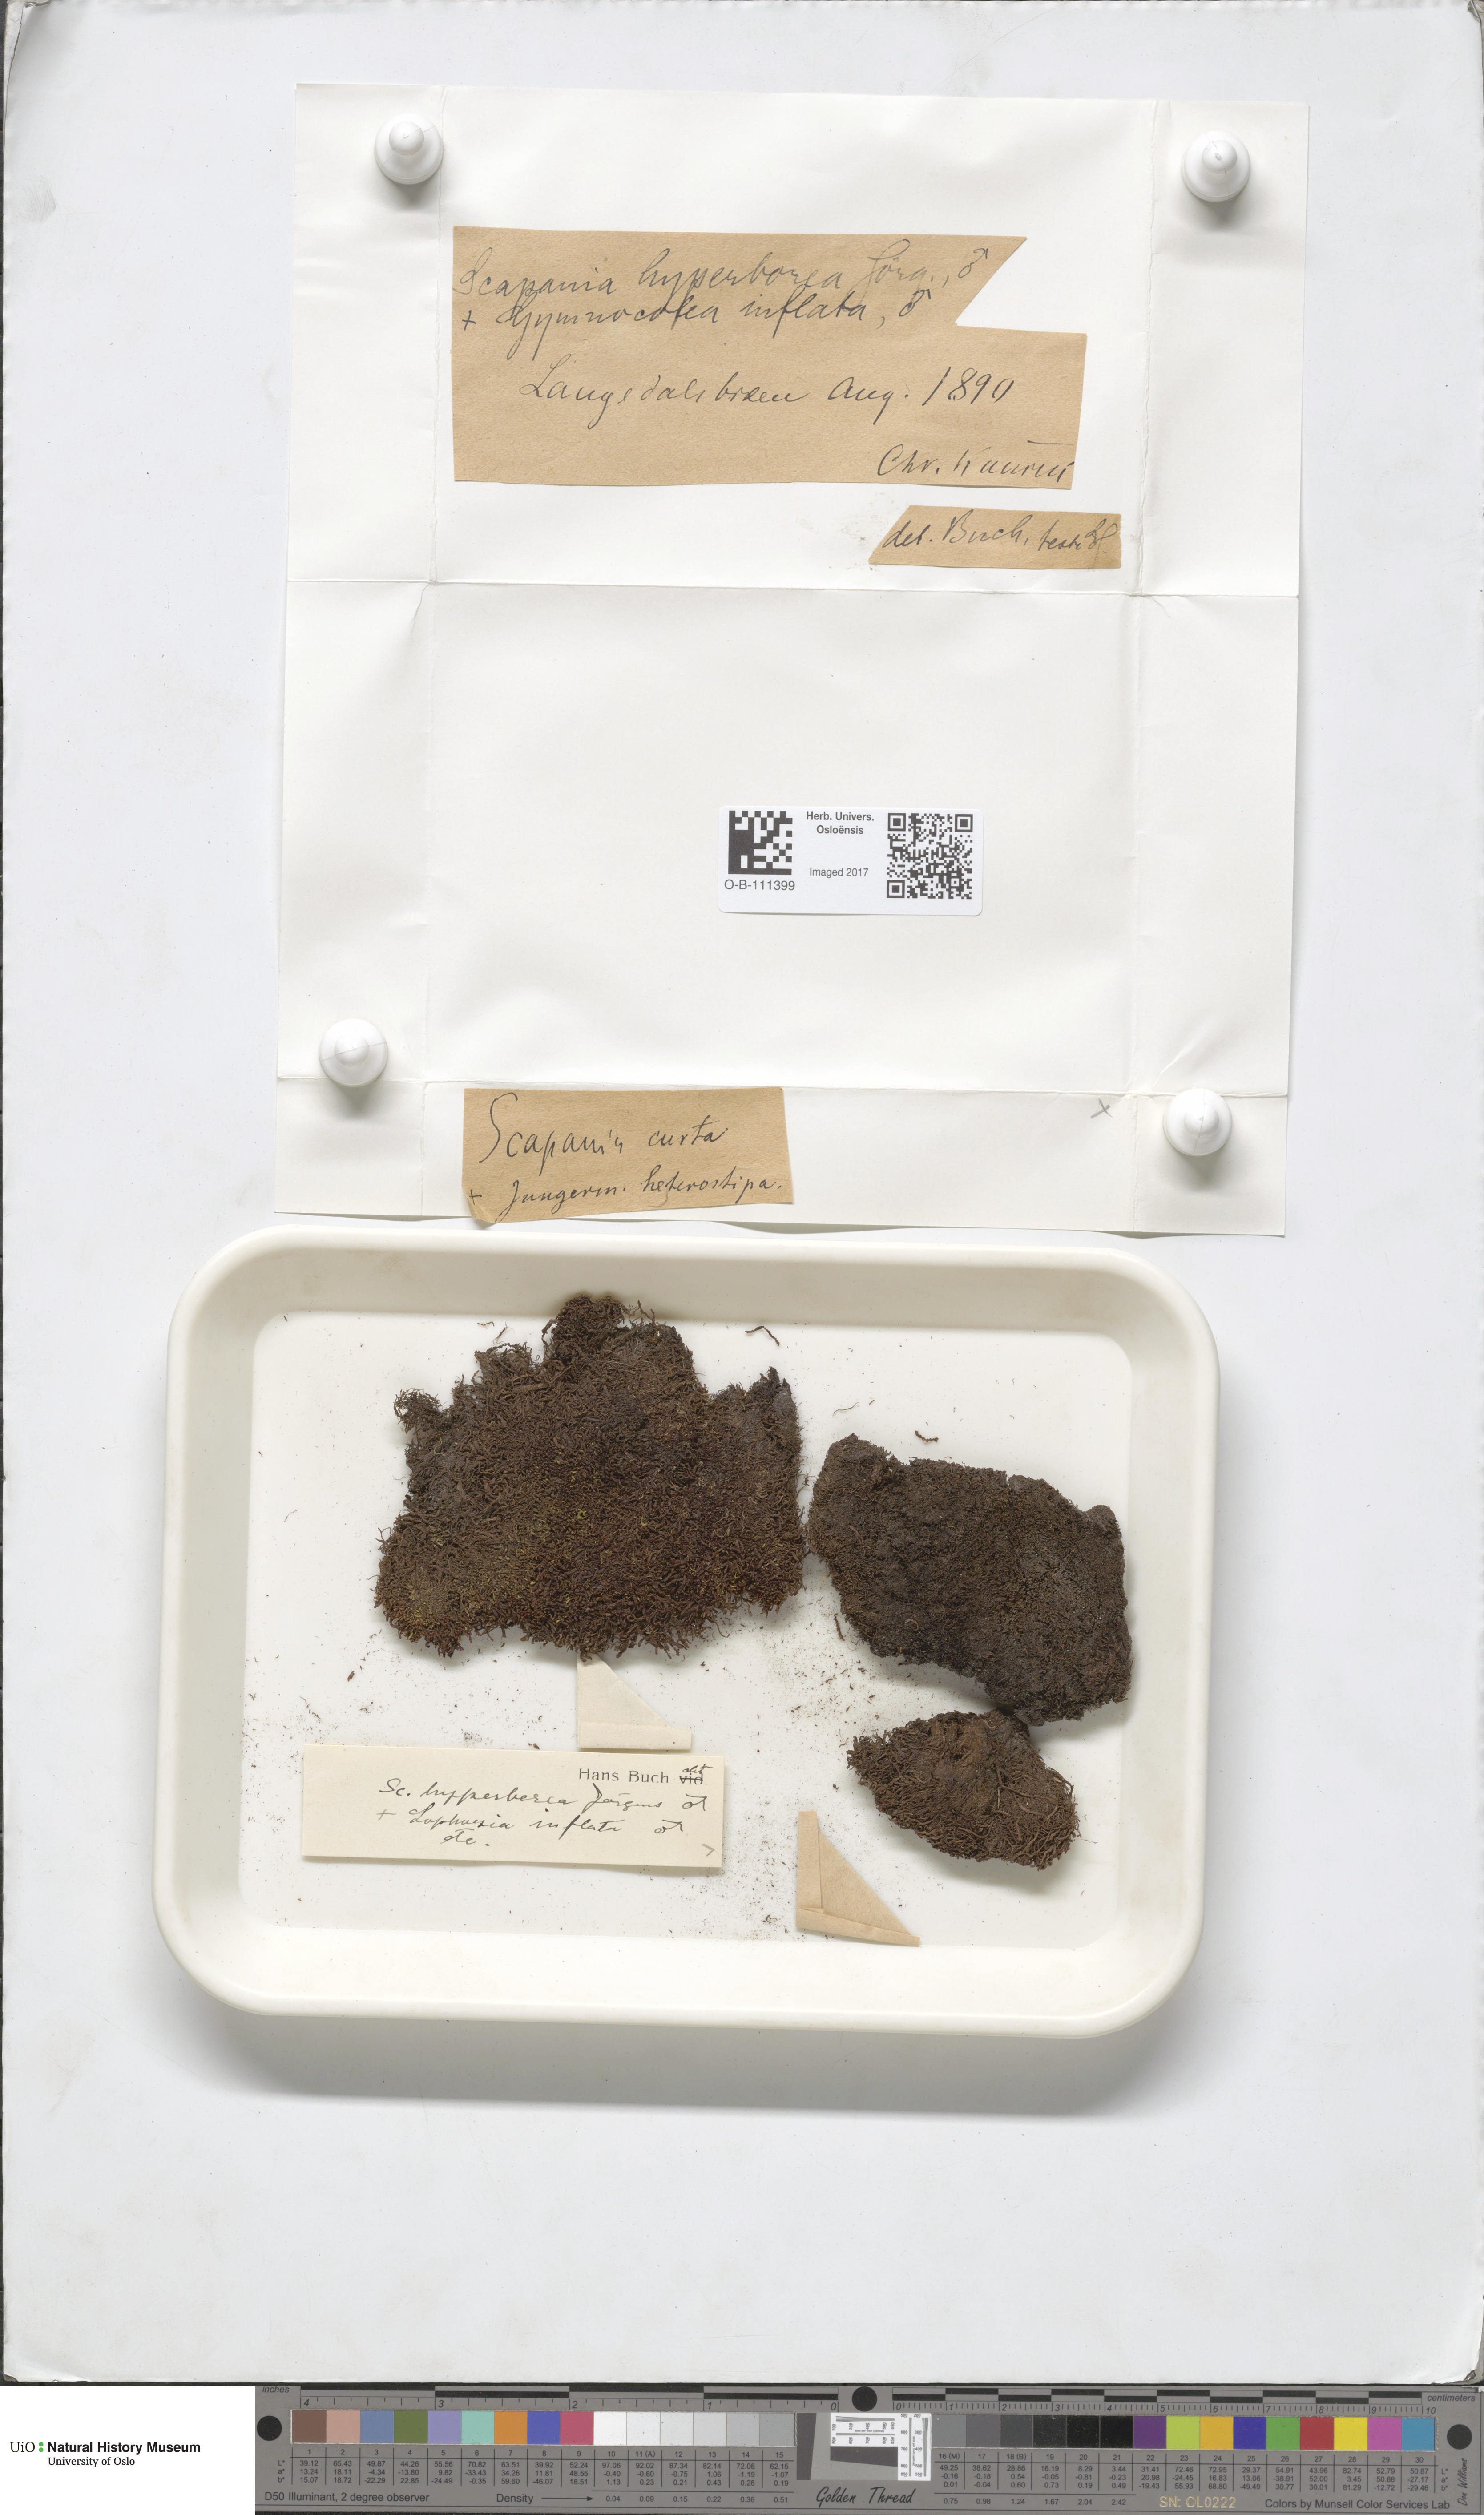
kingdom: Plantae
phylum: Marchantiophyta
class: Jungermanniopsida
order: Jungermanniales
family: Scapaniaceae
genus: Scapania
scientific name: Scapania hyperborea
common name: Northern earwort
